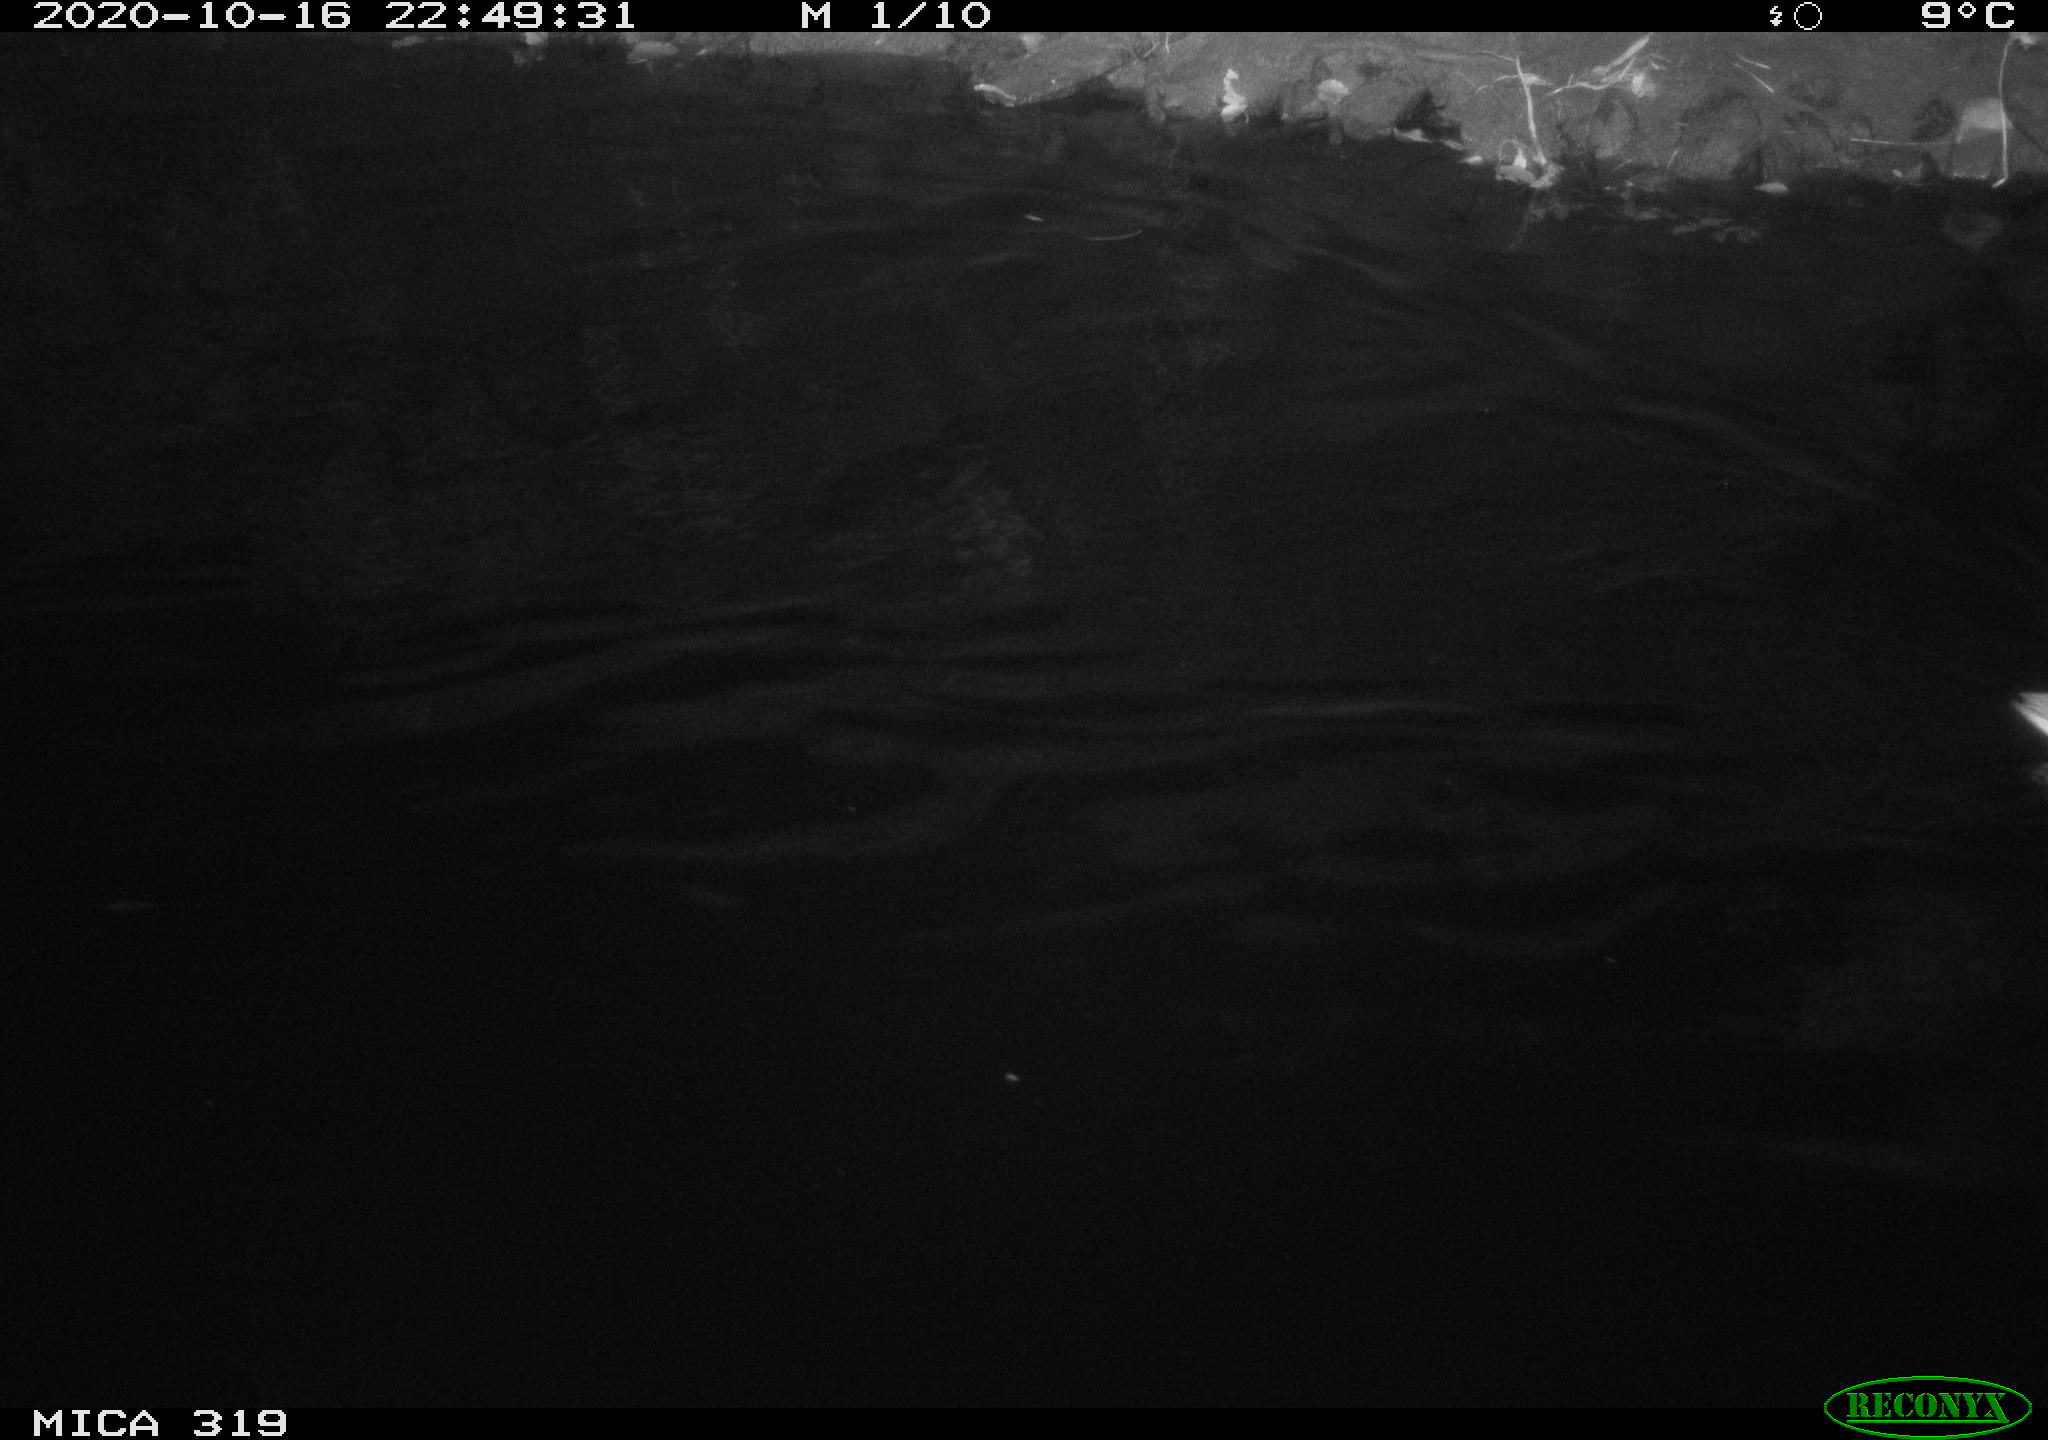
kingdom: Animalia
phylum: Chordata
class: Aves
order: Anseriformes
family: Anatidae
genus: Anas
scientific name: Anas platyrhynchos
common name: Mallard
